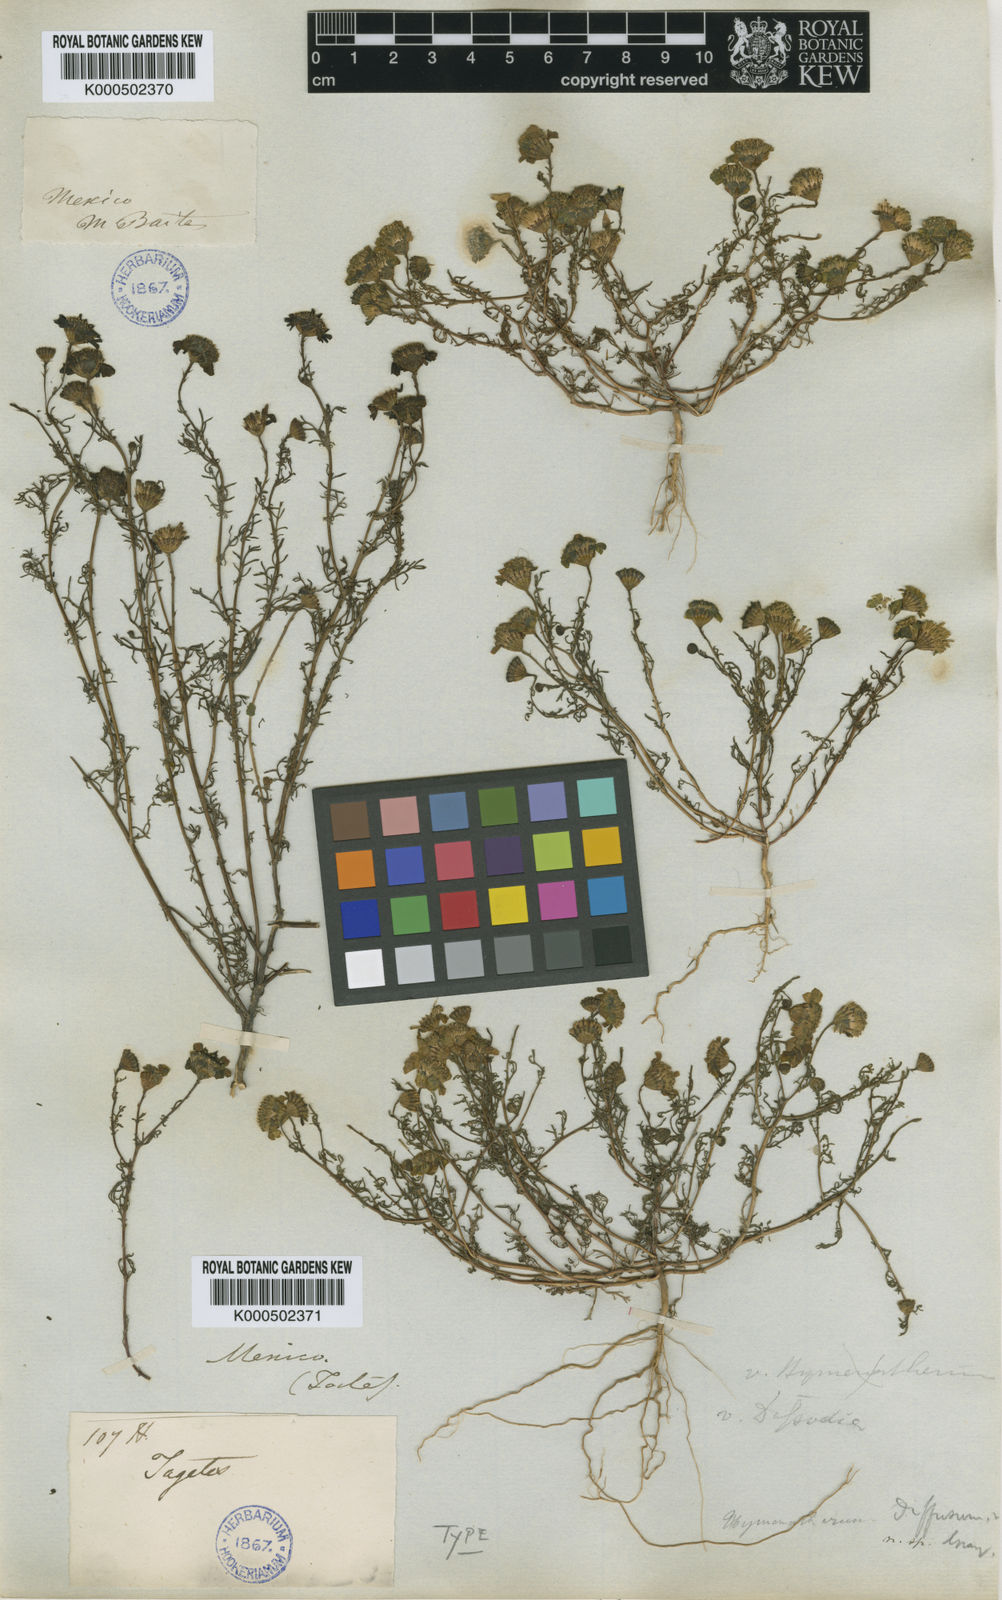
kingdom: Plantae
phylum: Tracheophyta
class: Magnoliopsida
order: Asterales
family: Asteraceae
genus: Thymophylla
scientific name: Thymophylla tenuifolia
